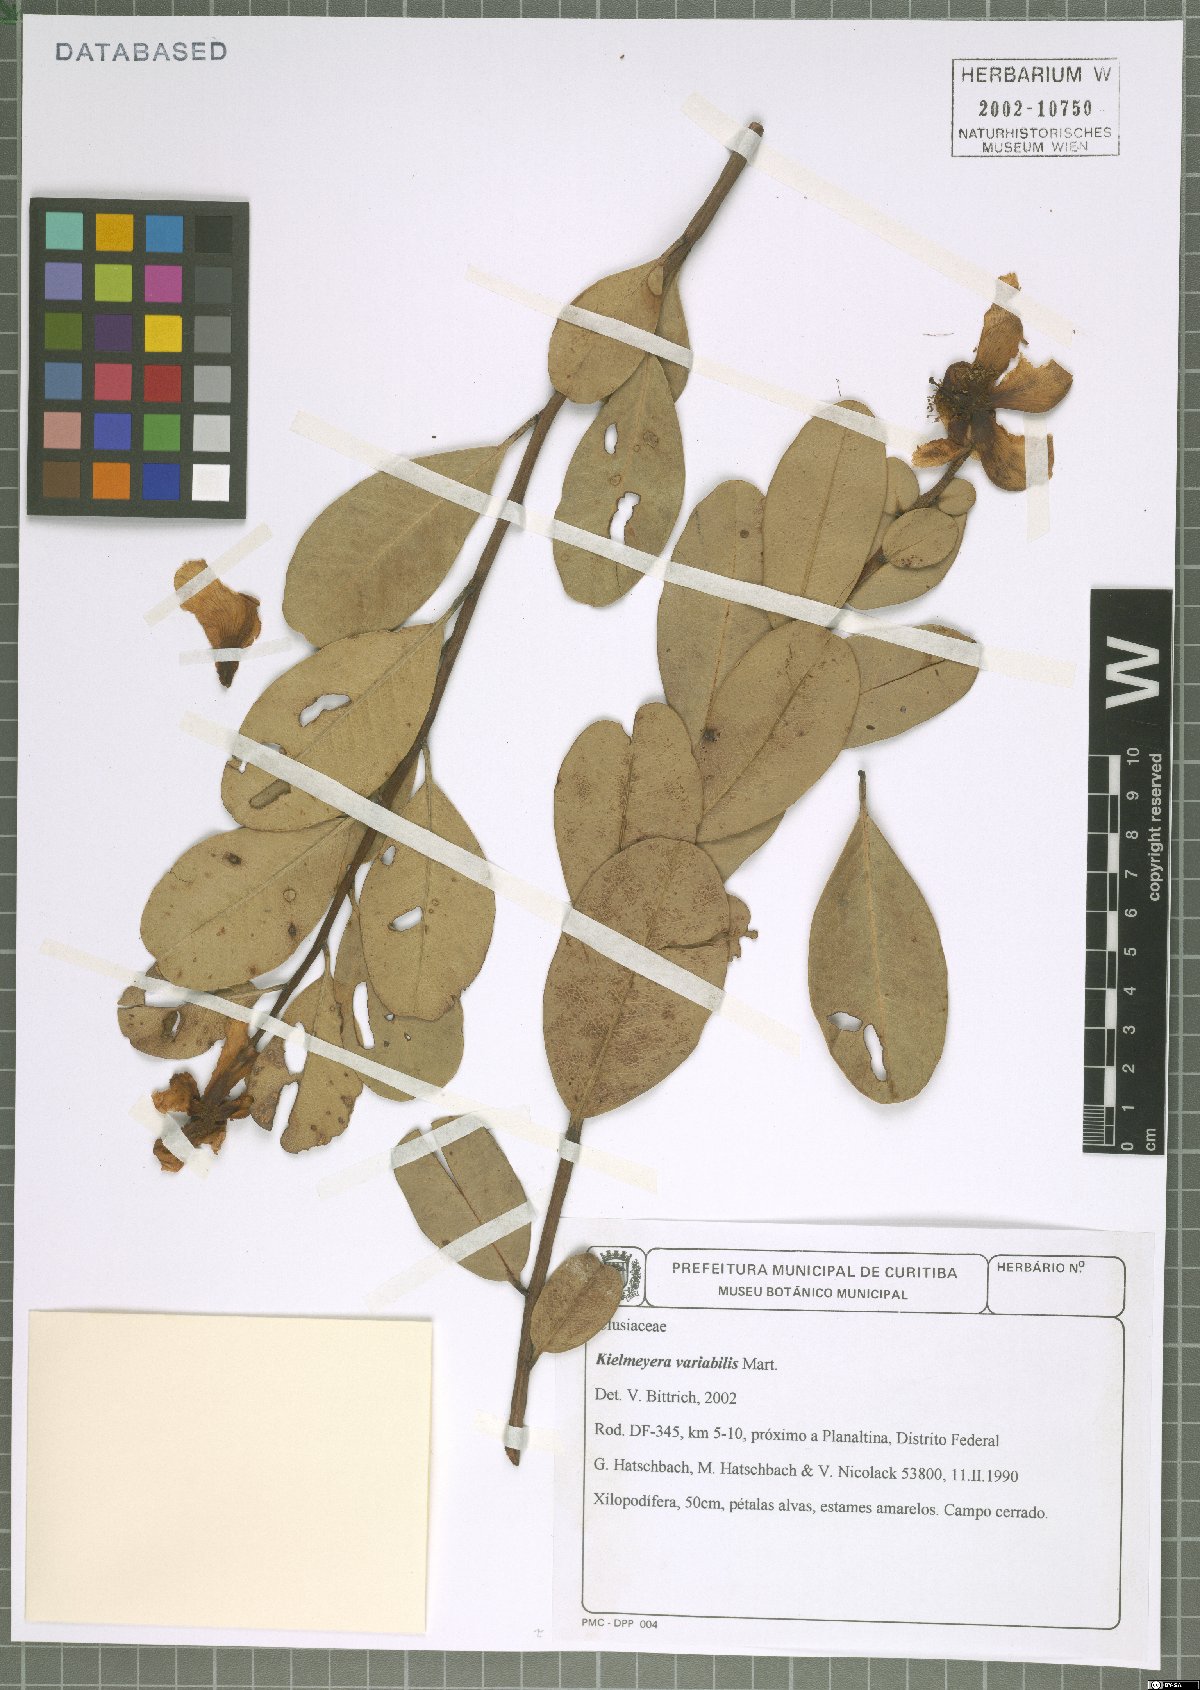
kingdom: Plantae
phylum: Tracheophyta
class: Magnoliopsida
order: Malpighiales
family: Calophyllaceae
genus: Kielmeyera
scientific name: Kielmeyera variabilis
